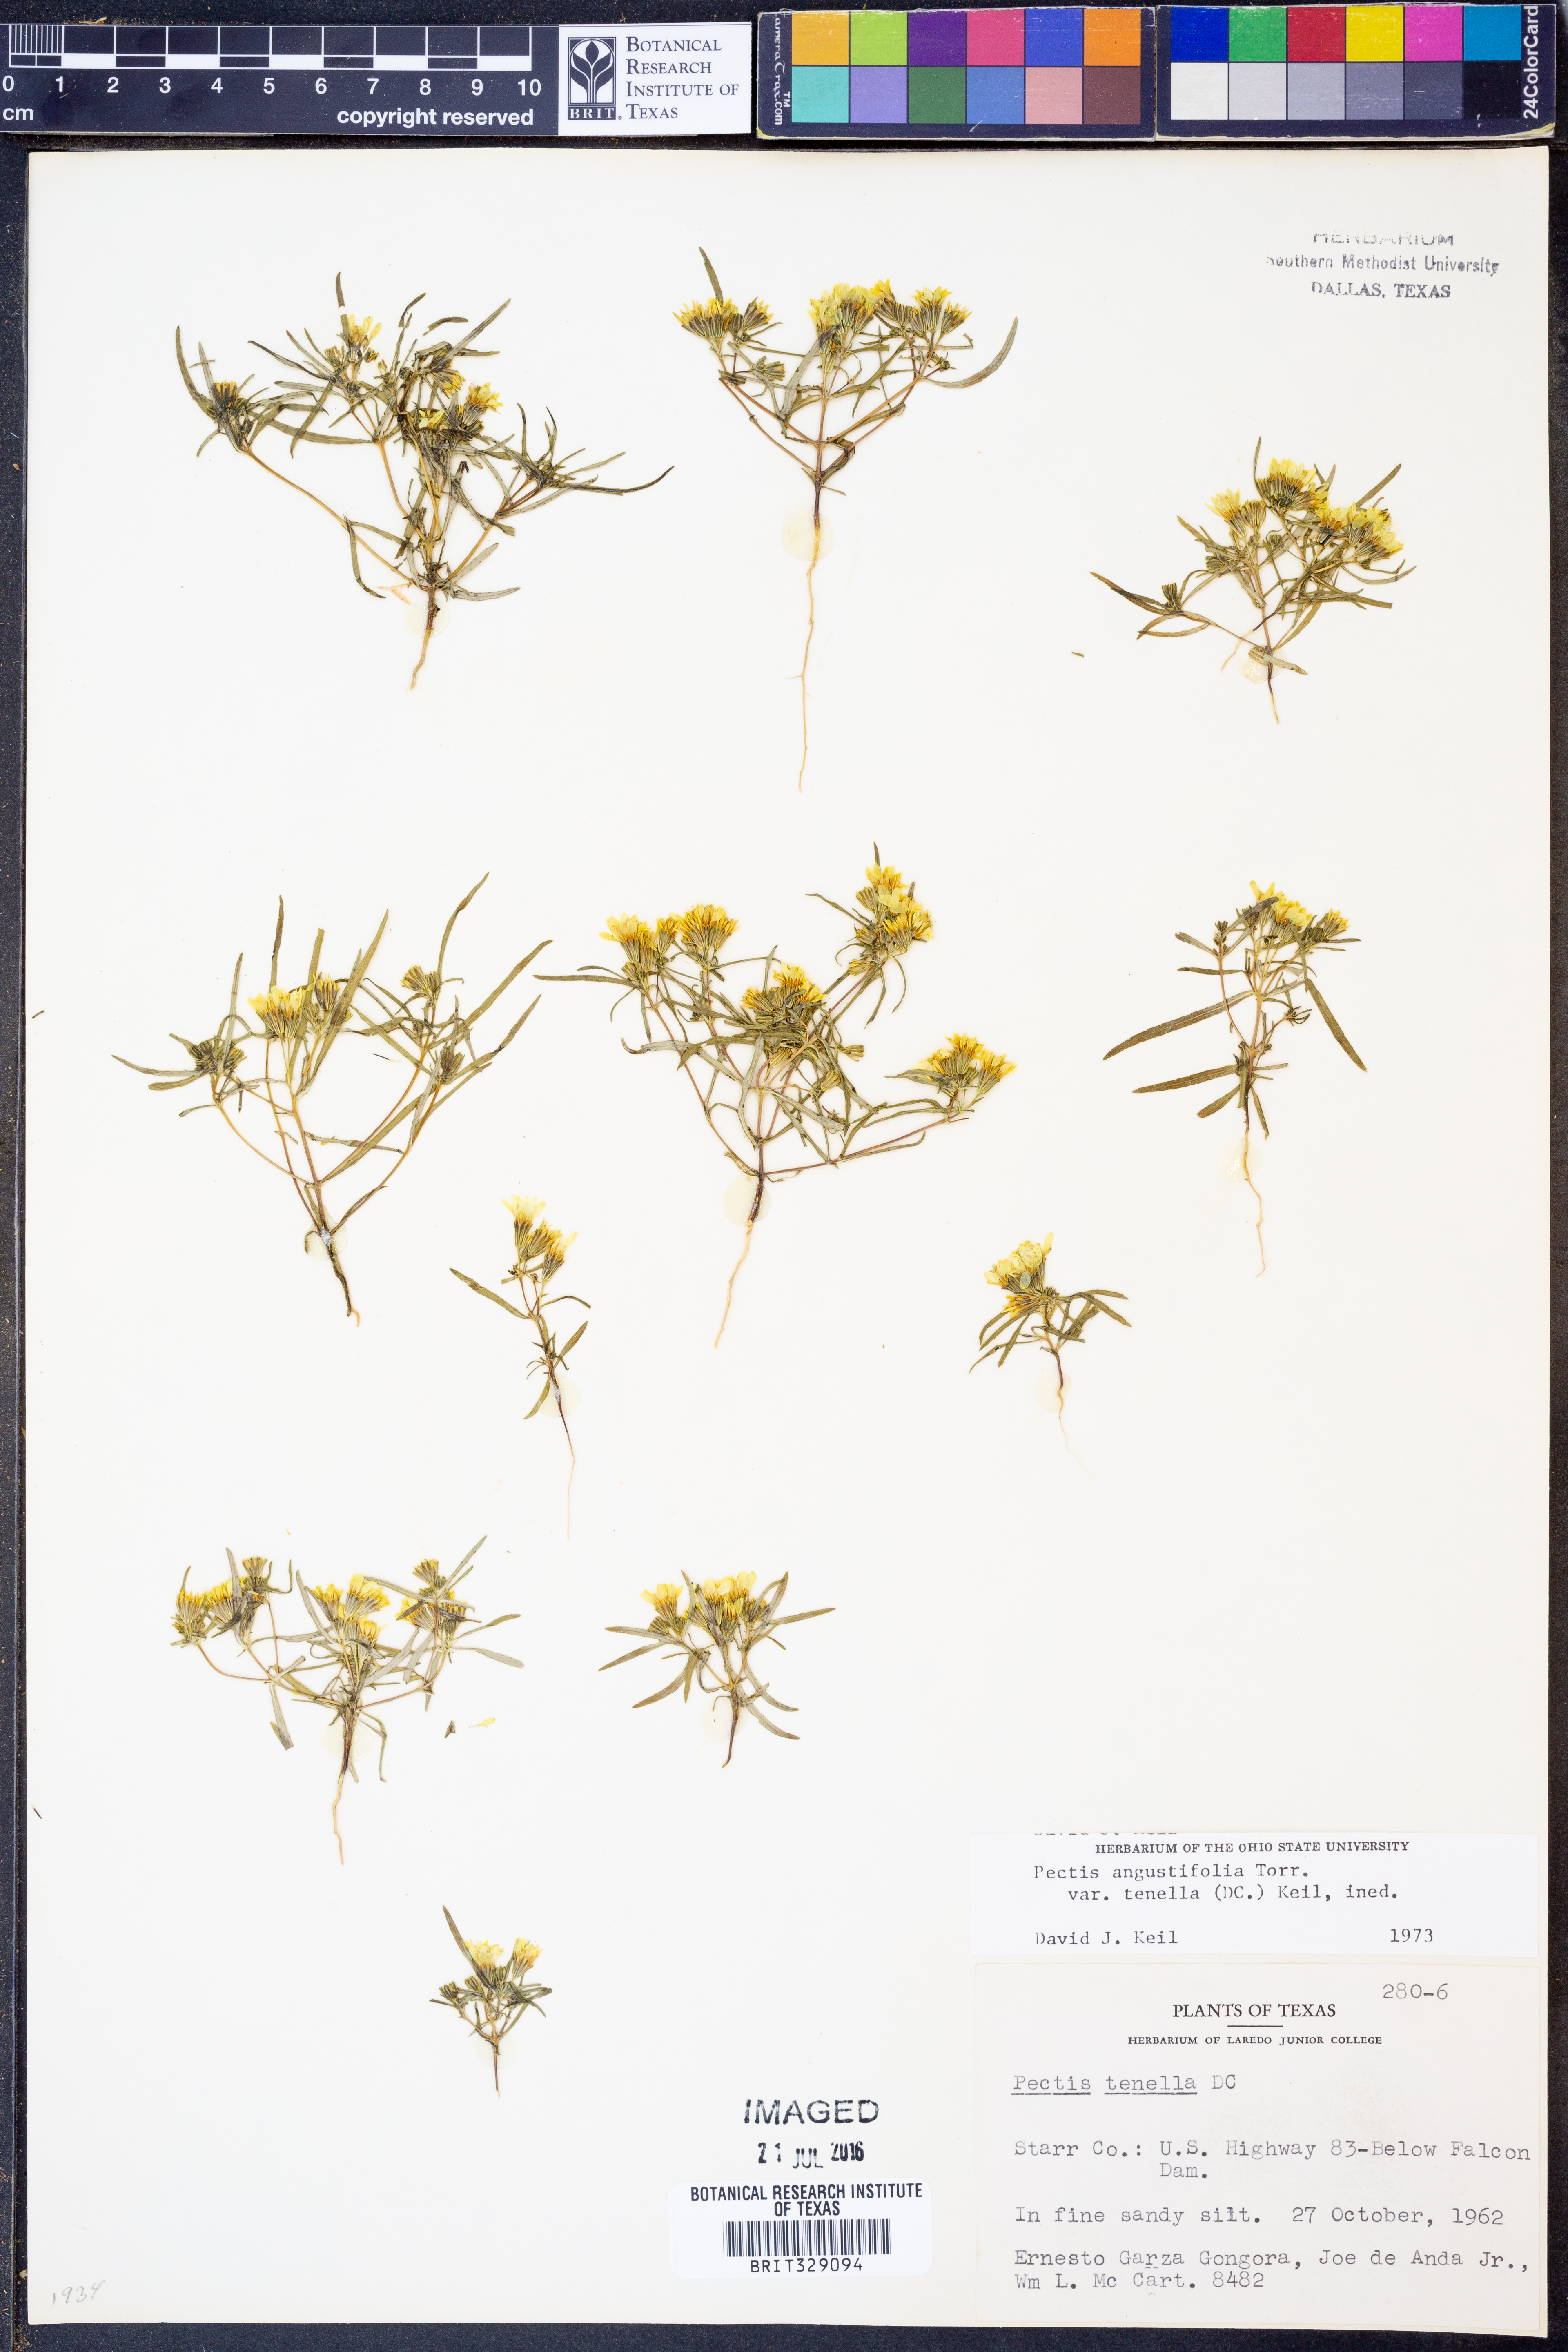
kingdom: Plantae
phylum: Tracheophyta
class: Magnoliopsida
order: Asterales
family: Asteraceae
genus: Pectis
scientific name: Pectis angustifolia
